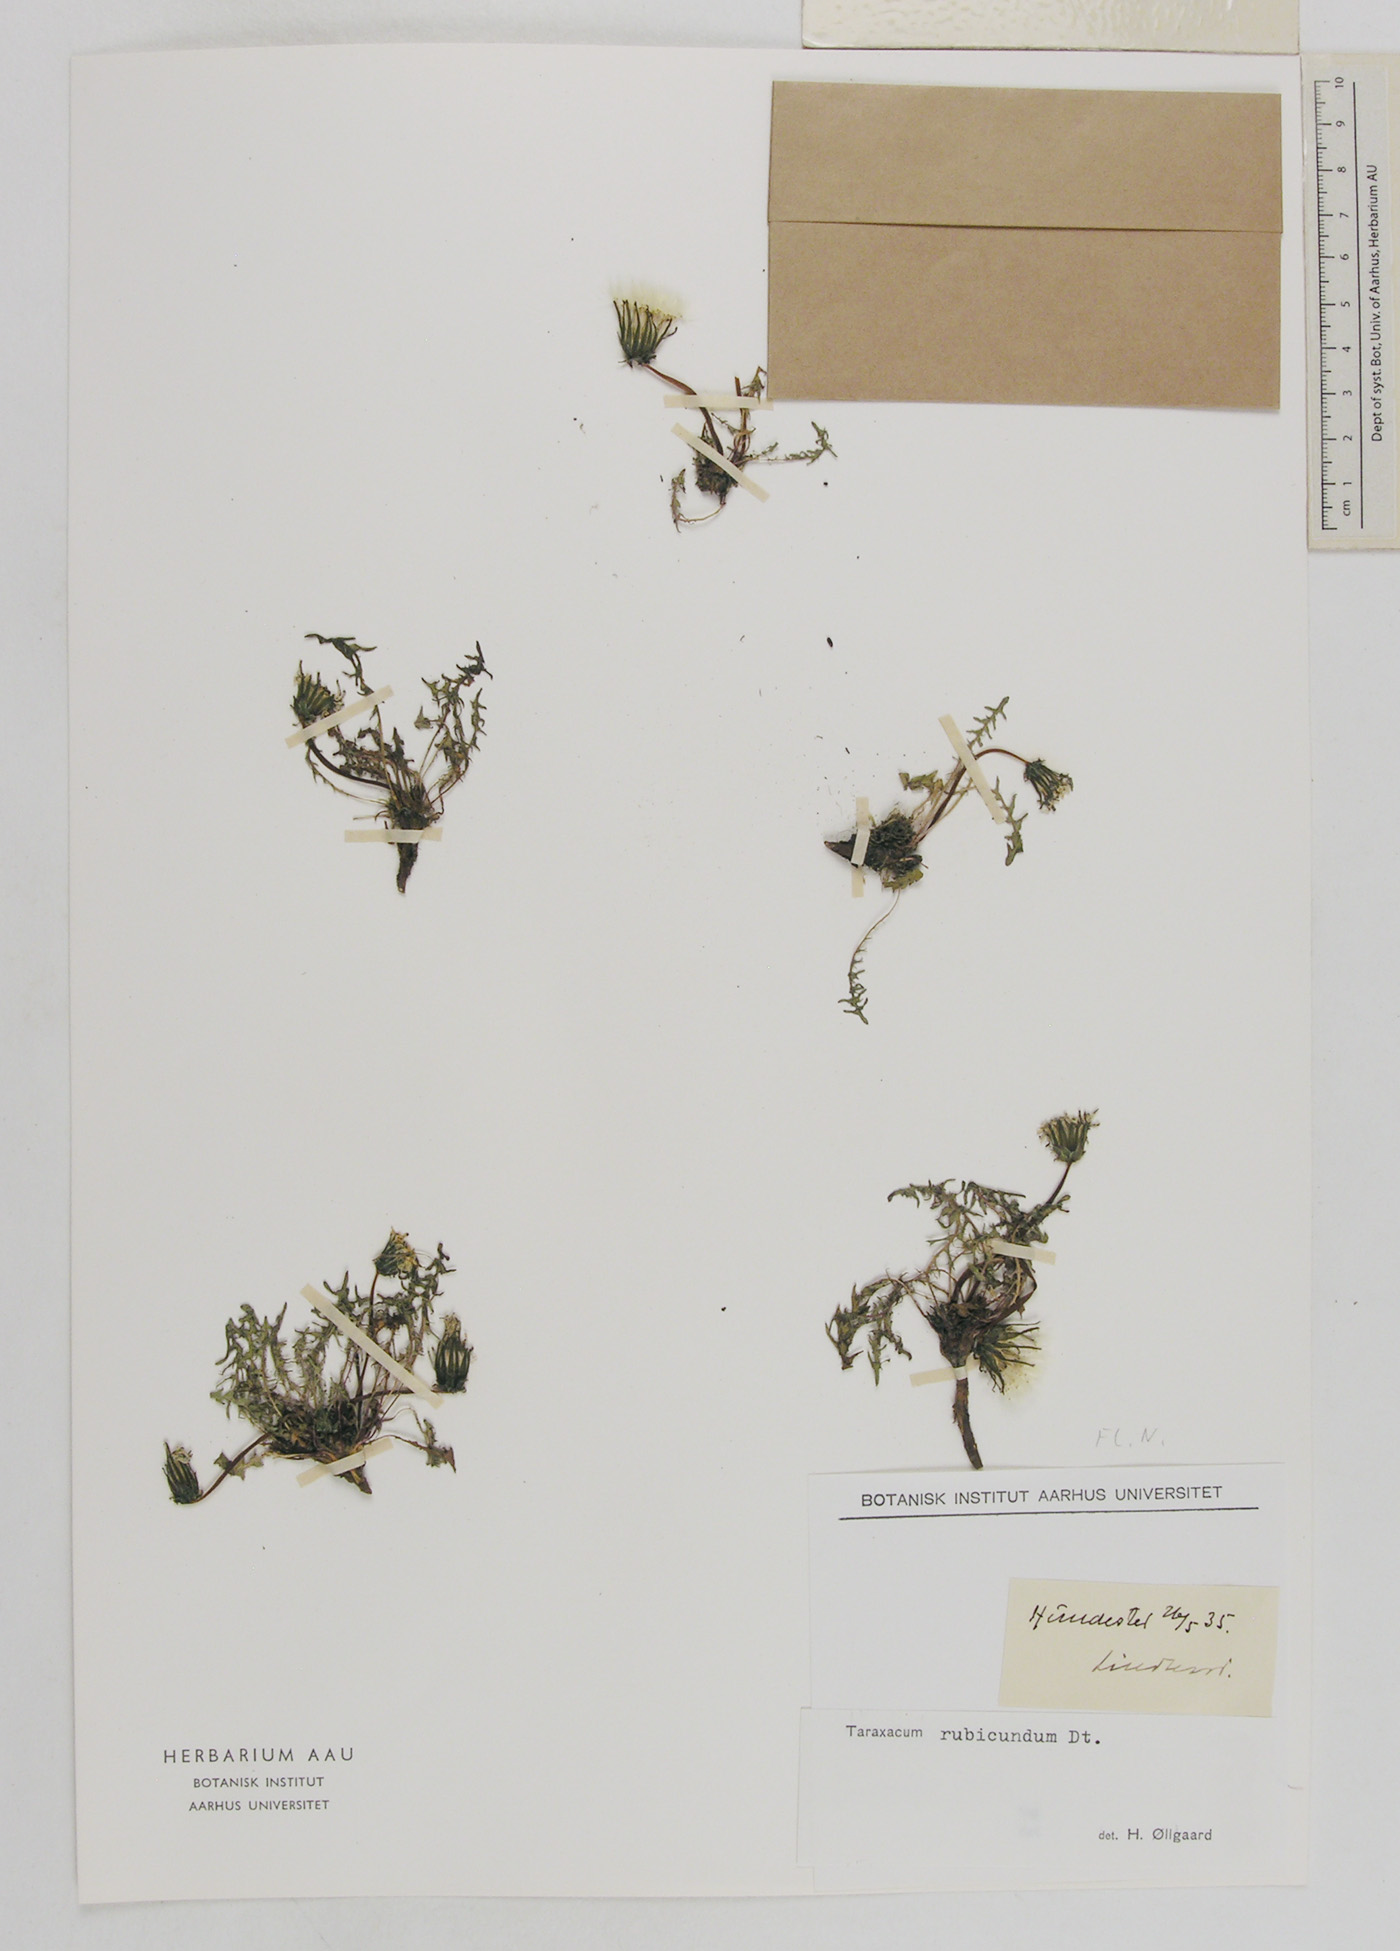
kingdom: Plantae
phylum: Tracheophyta
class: Magnoliopsida
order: Asterales
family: Asteraceae
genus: Taraxacum
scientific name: Taraxacum rubicundum
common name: Ruddy dandelion
